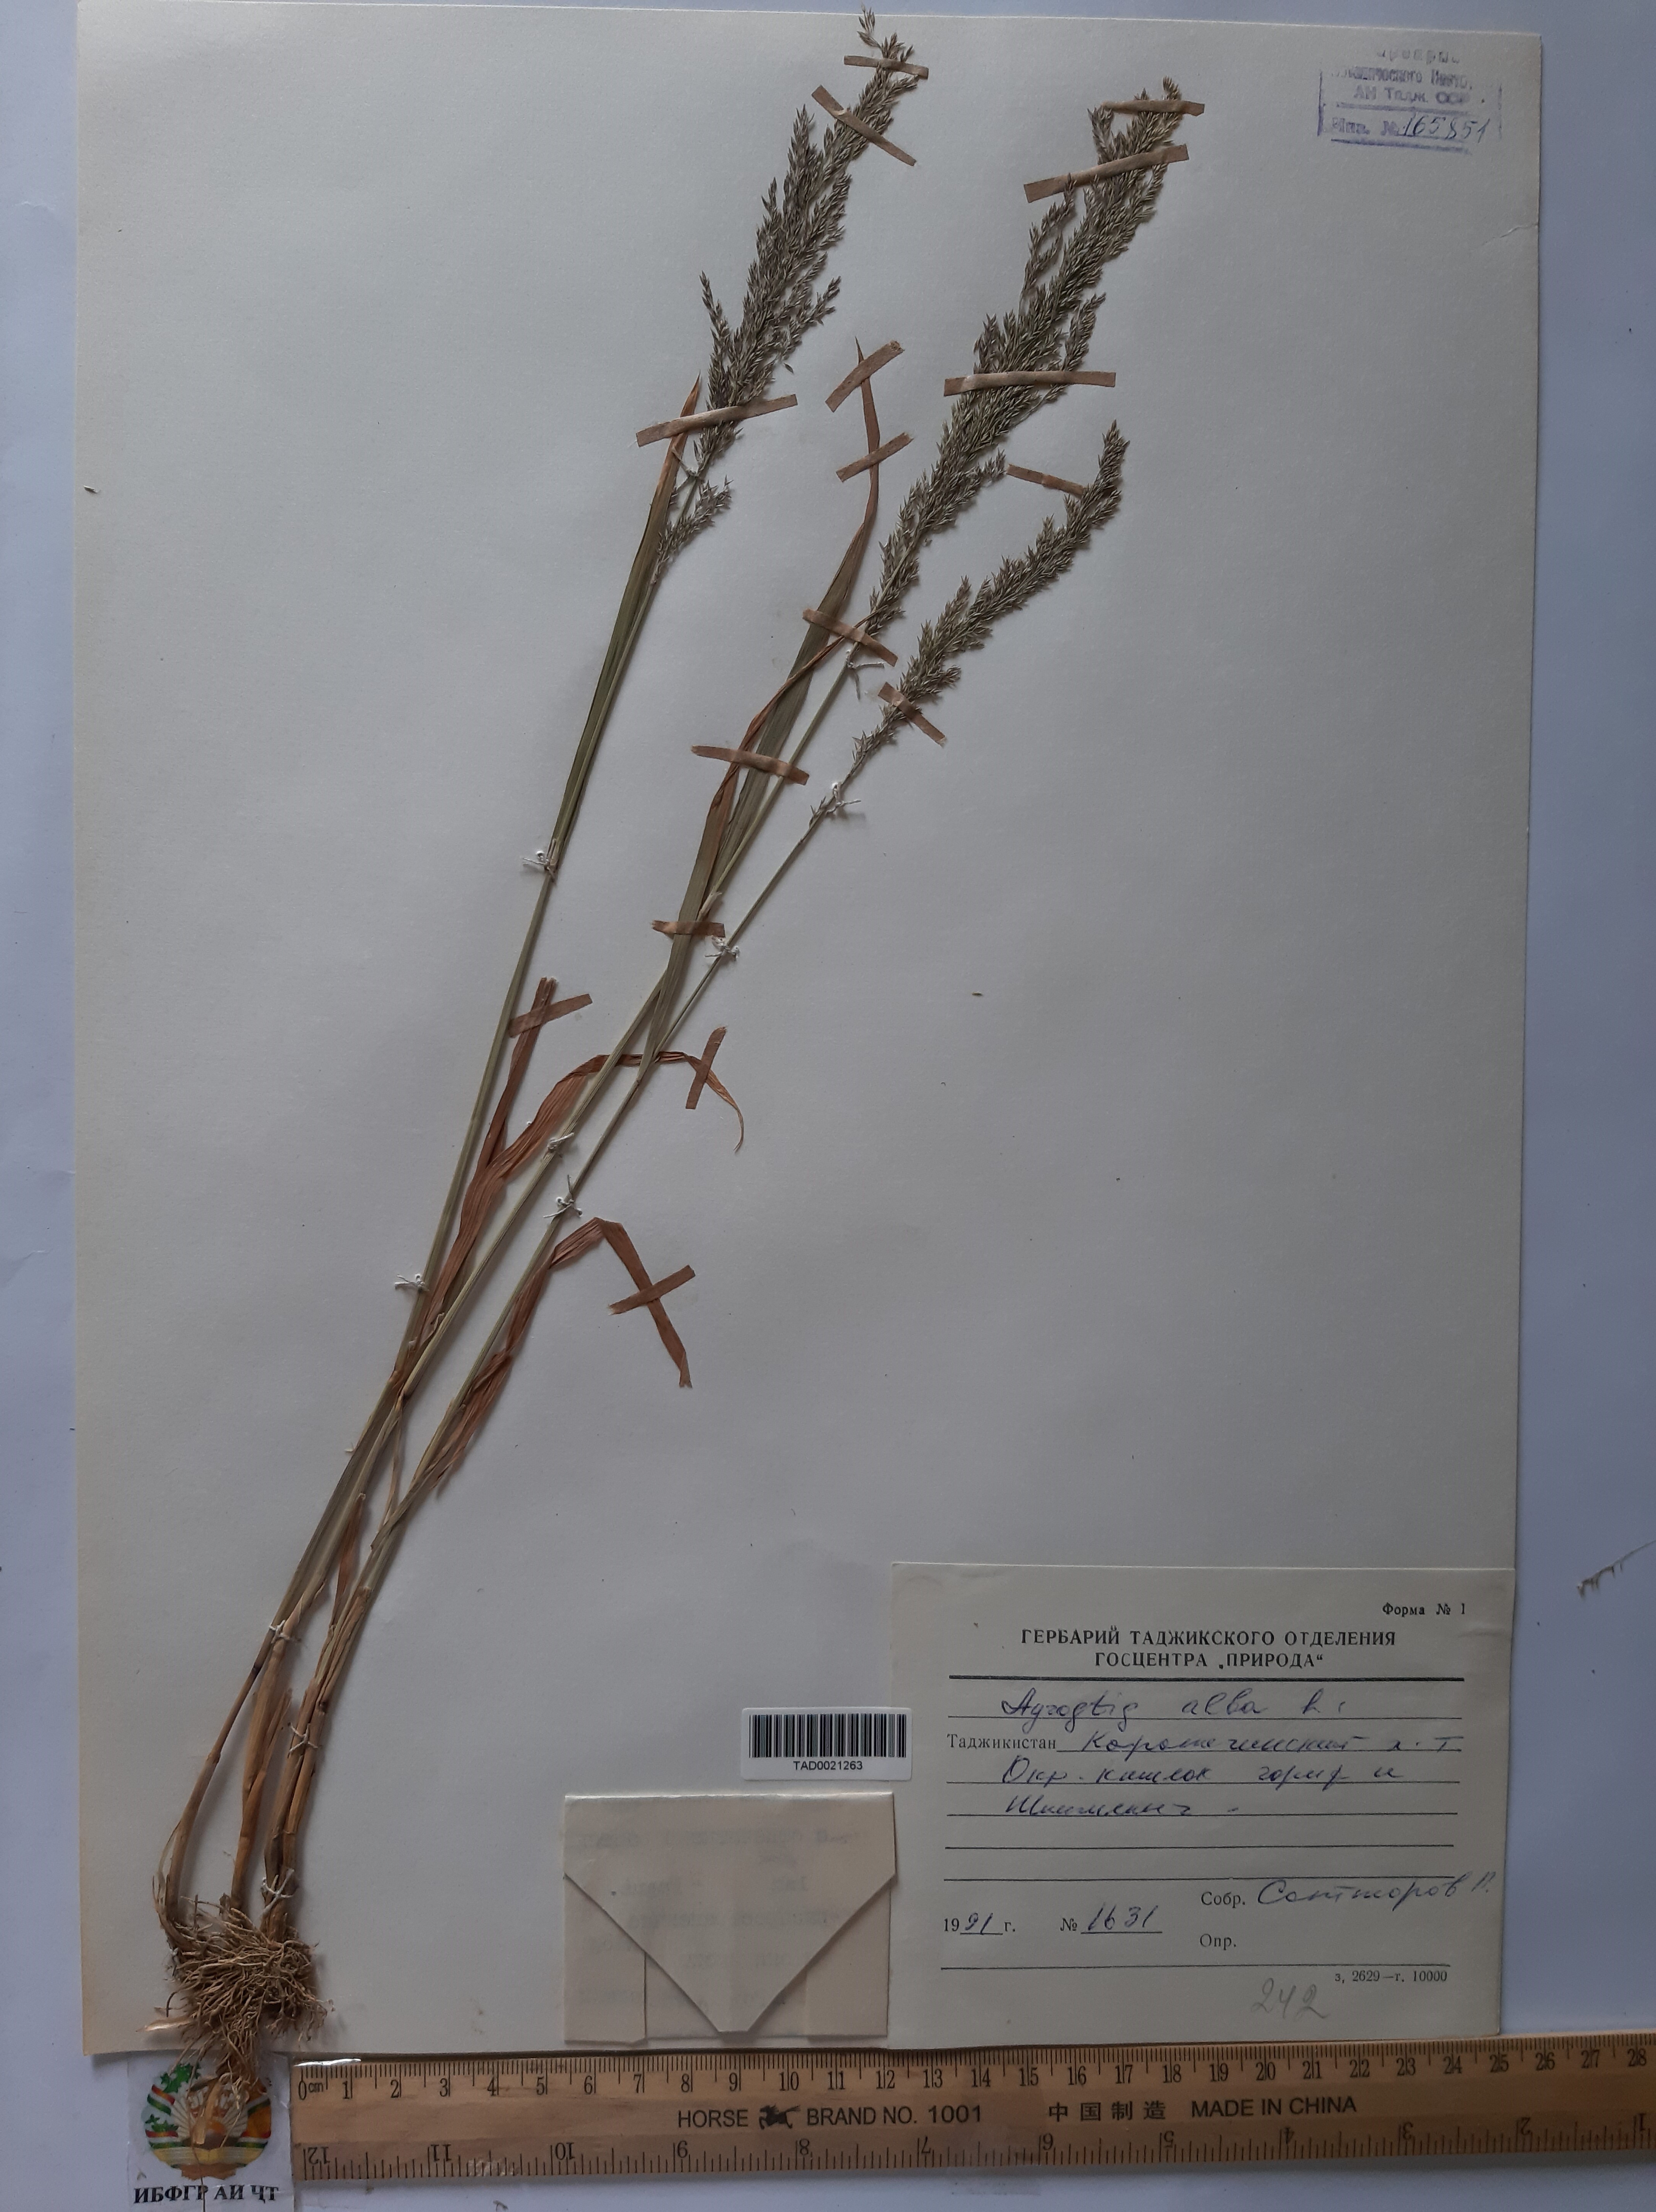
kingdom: Plantae
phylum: Tracheophyta
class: Liliopsida
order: Poales
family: Poaceae
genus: Poa
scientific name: Poa nemoralis
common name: Wood bluegrass
